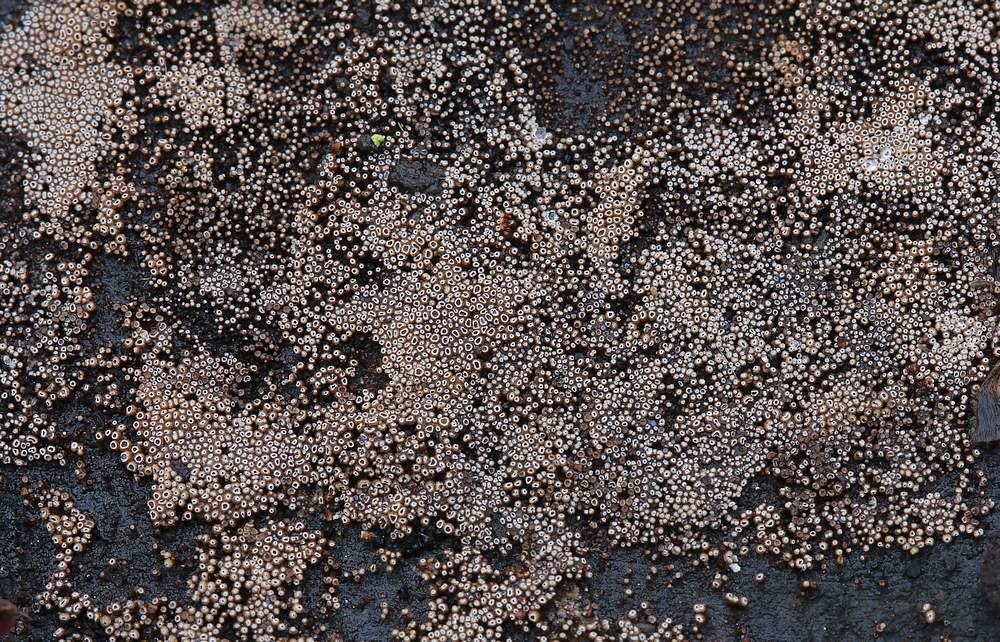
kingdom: Fungi
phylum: Basidiomycota
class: Agaricomycetes
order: Agaricales
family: Niaceae
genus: Merismodes
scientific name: Merismodes anomala
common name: almindelig læderskål
